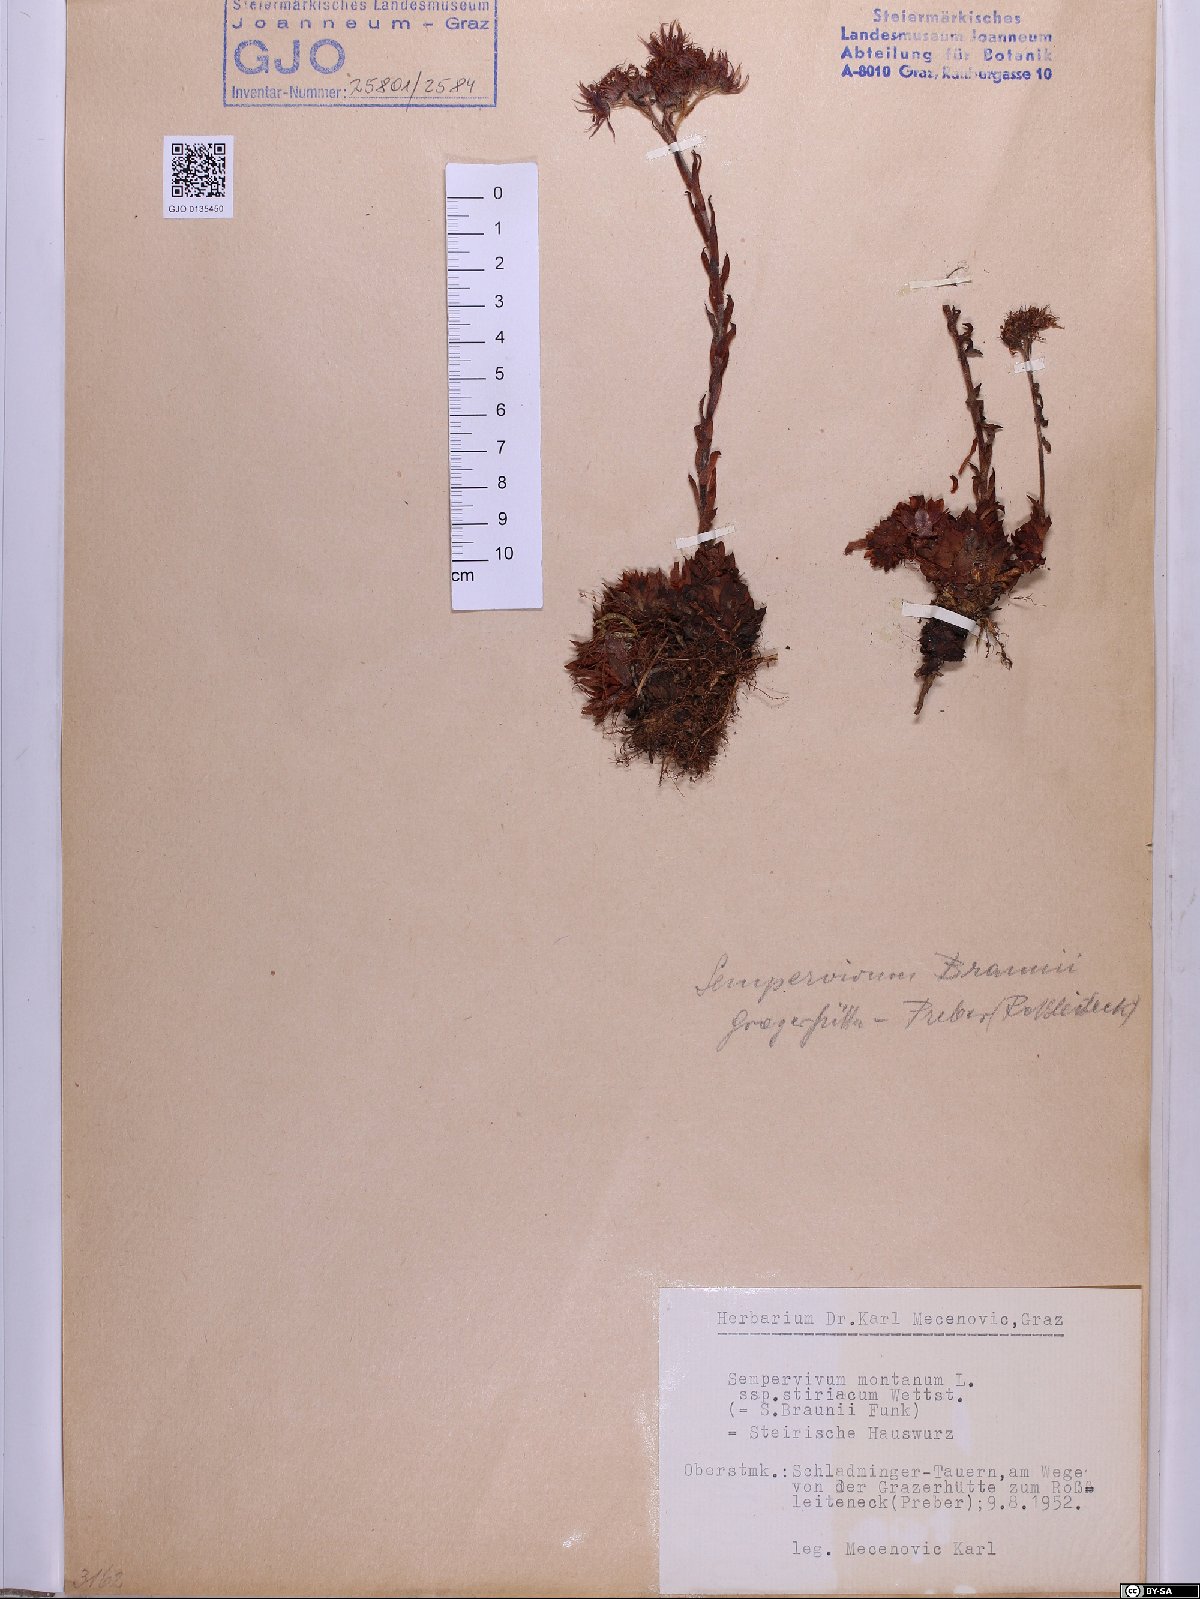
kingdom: Plantae
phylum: Tracheophyta
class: Magnoliopsida
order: Saxifragales
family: Crassulaceae
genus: Sempervivum
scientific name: Sempervivum montanum
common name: Mountain house-leek
